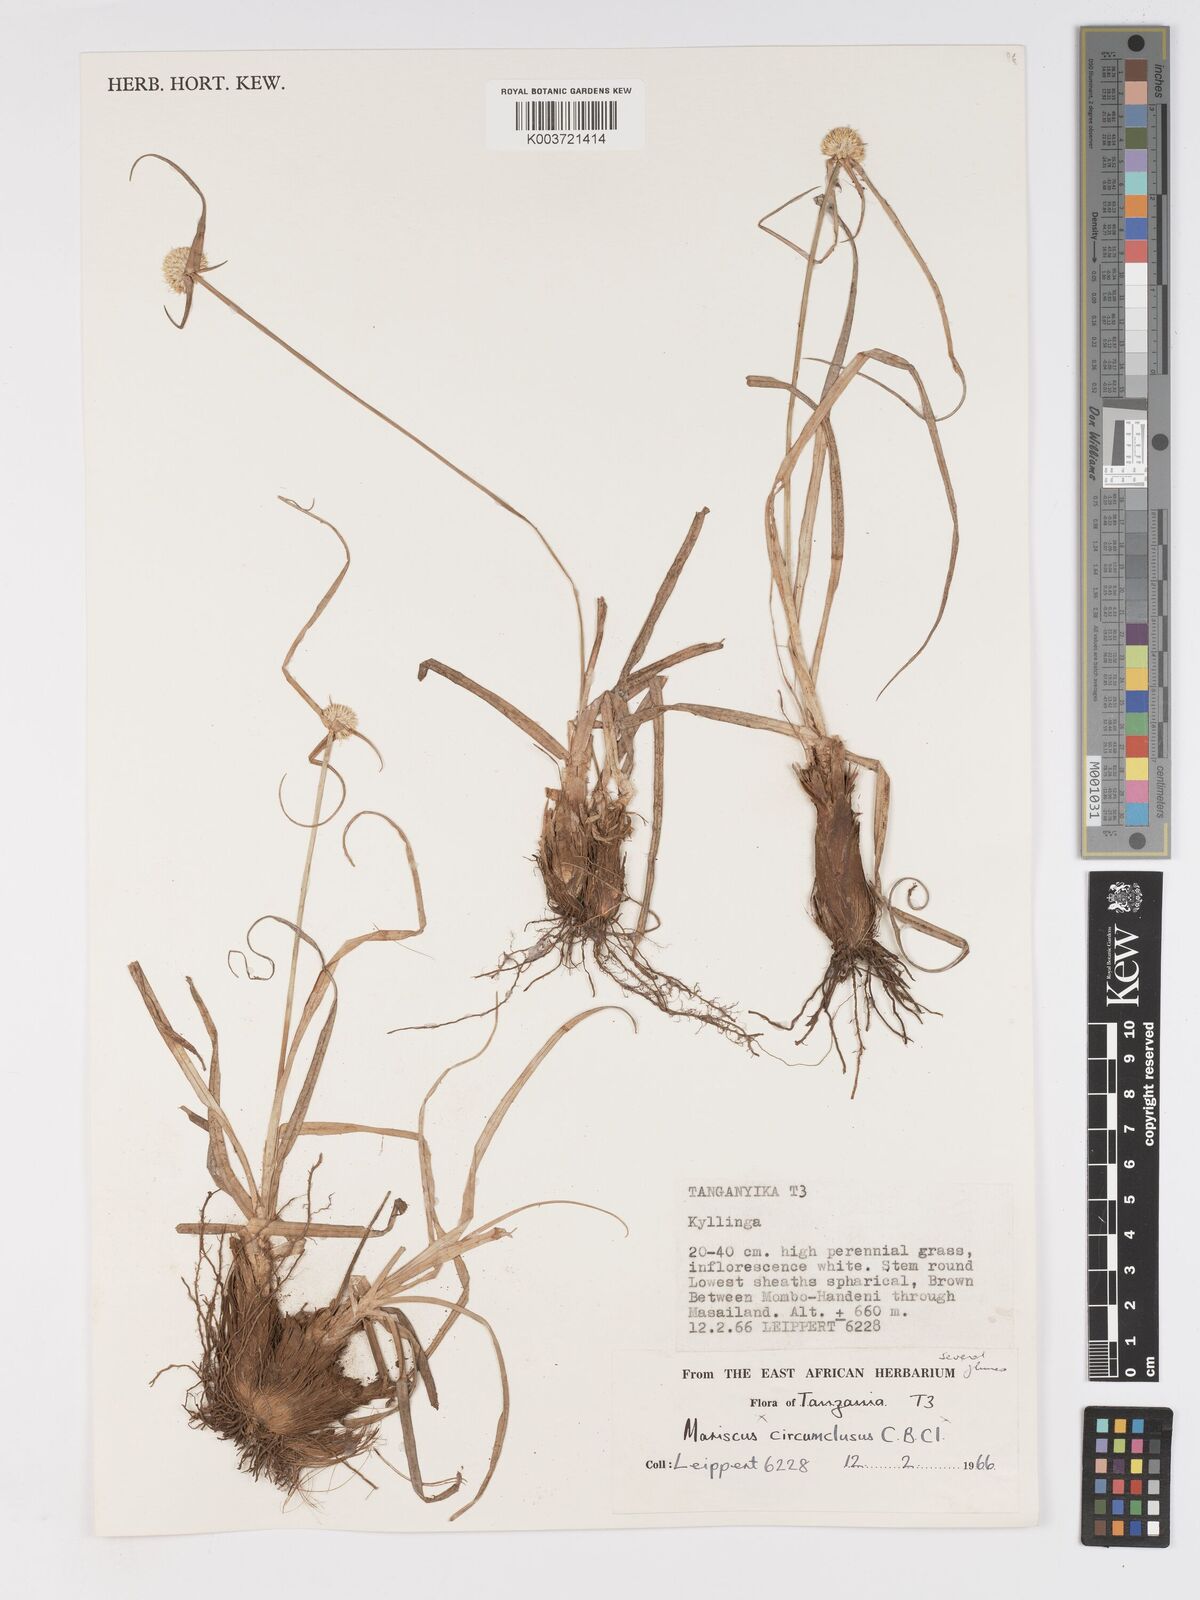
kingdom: Plantae
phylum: Tracheophyta
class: Liliopsida
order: Poales
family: Cyperaceae
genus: Cyperus
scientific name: Cyperus mollipes
